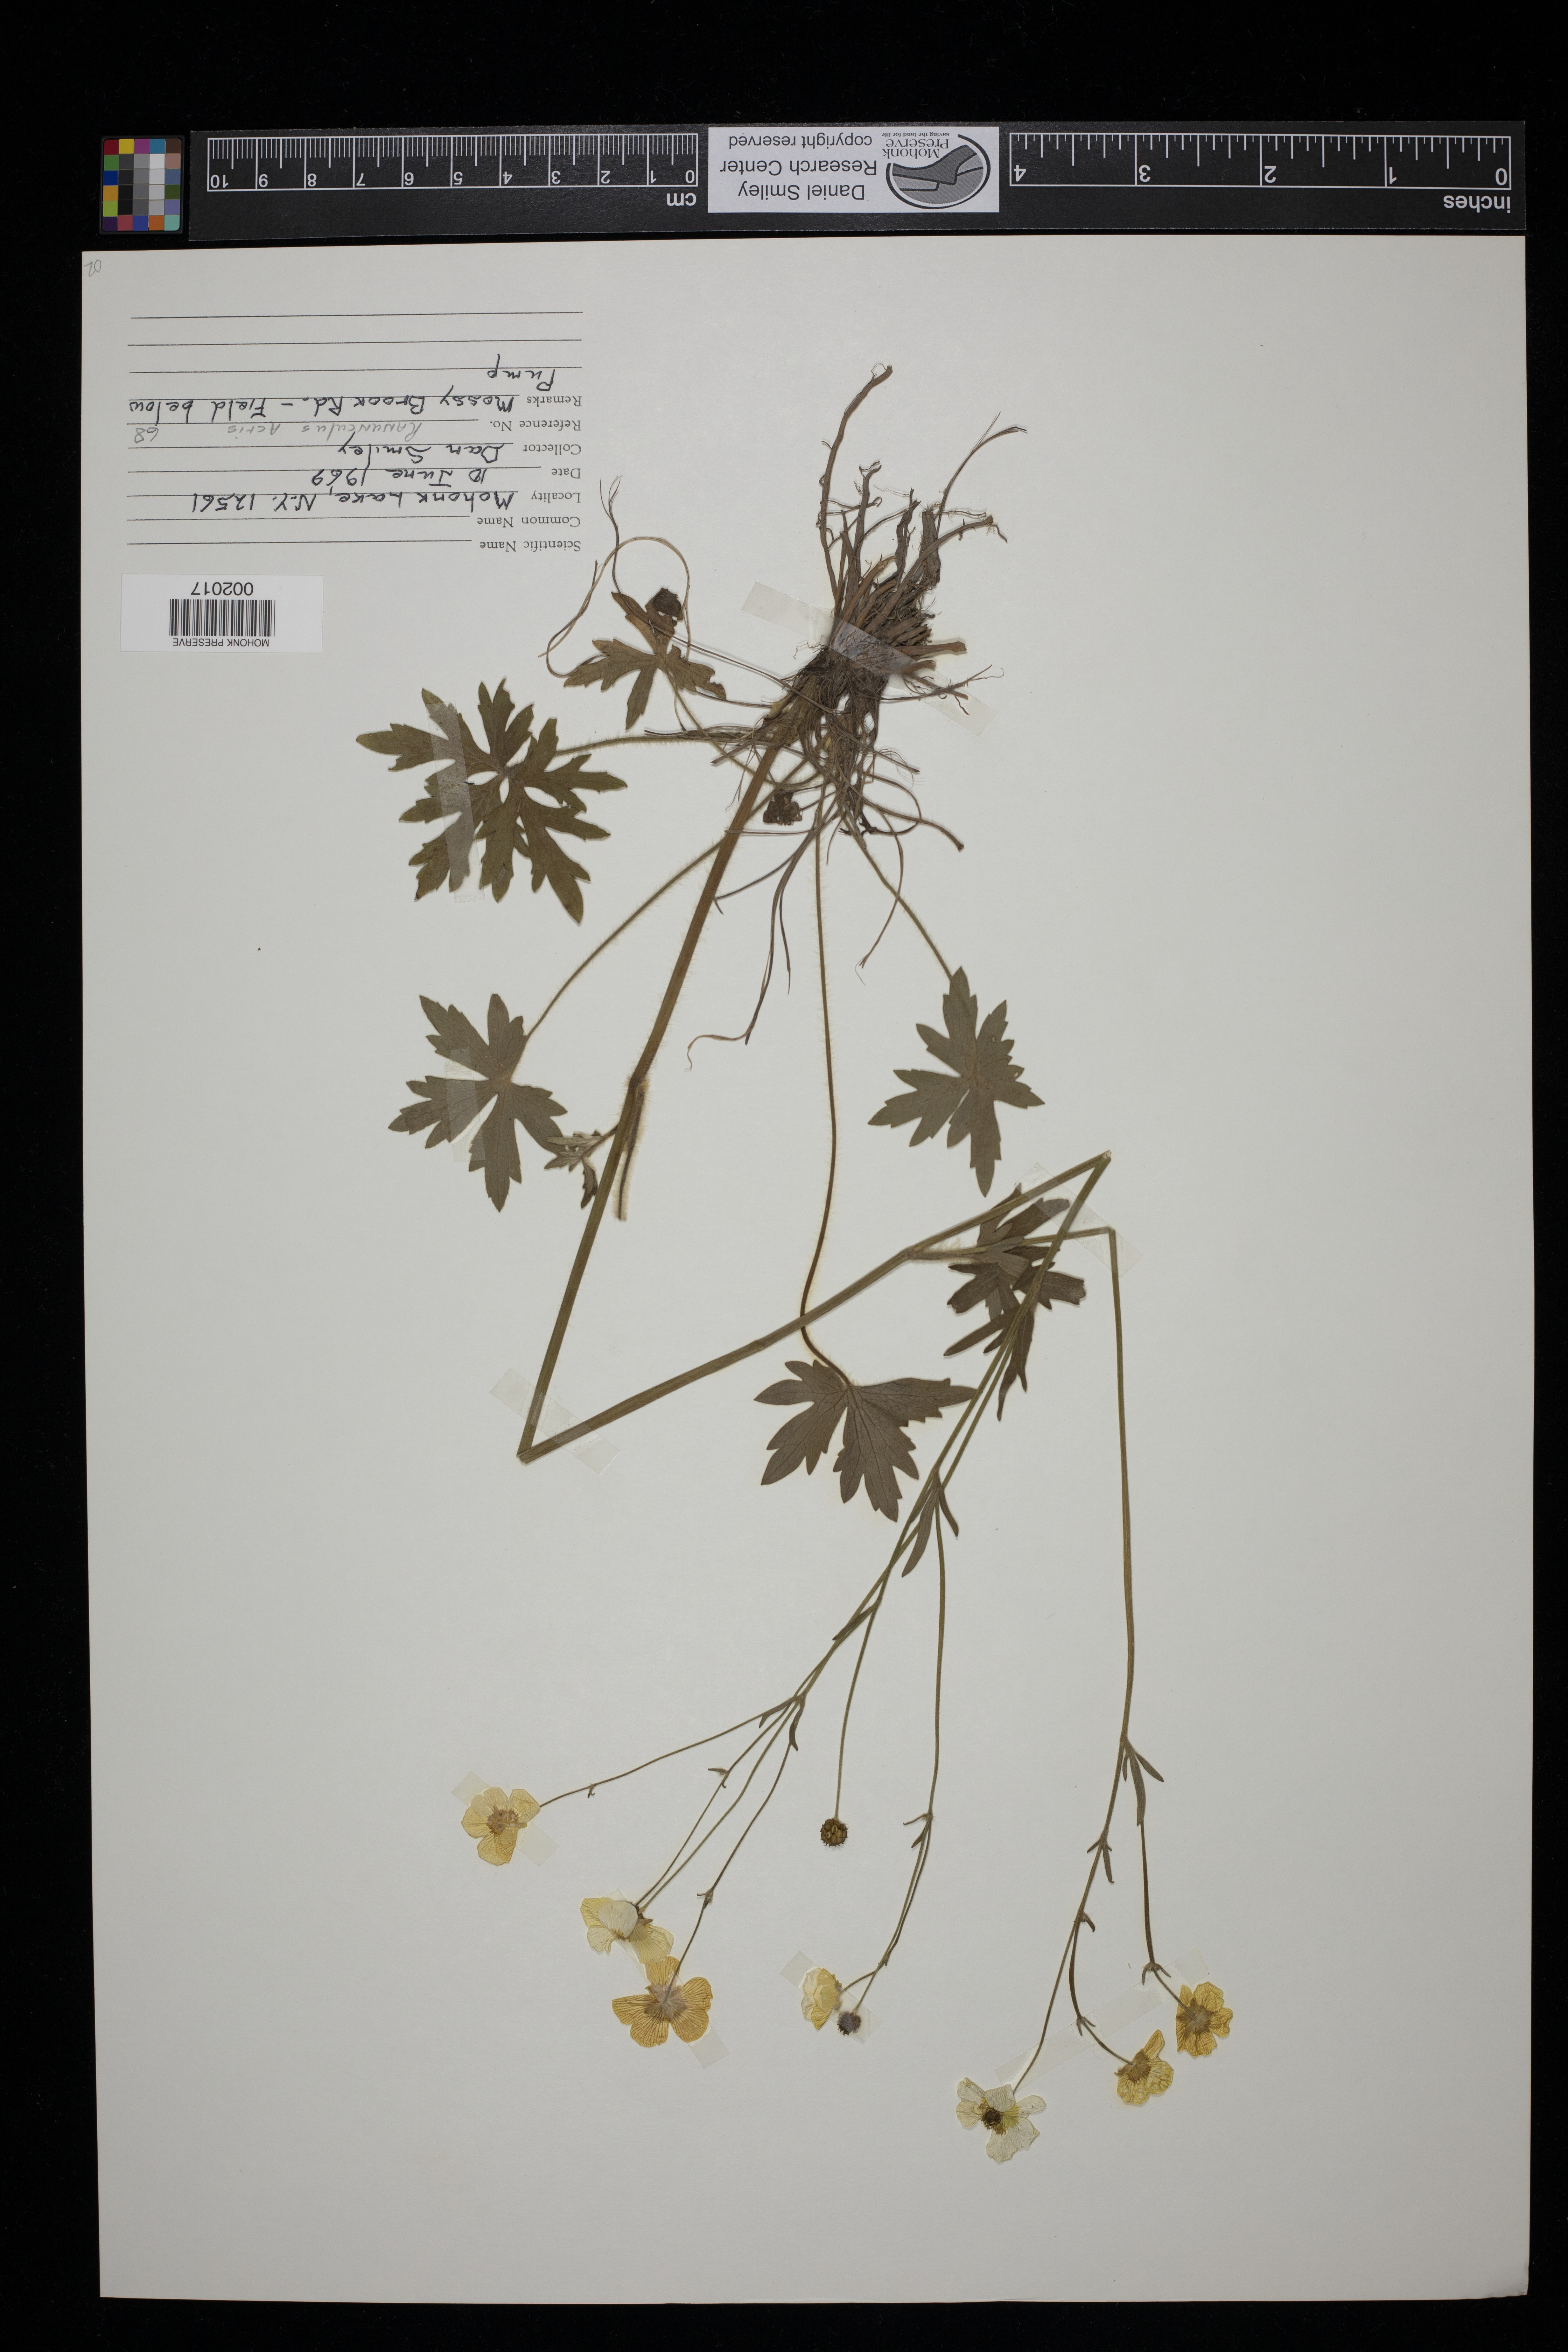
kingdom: Plantae
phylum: Tracheophyta
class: Magnoliopsida
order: Ranunculales
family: Ranunculaceae
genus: Ranunculus
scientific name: Ranunculus acris
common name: Meadow buttercup
